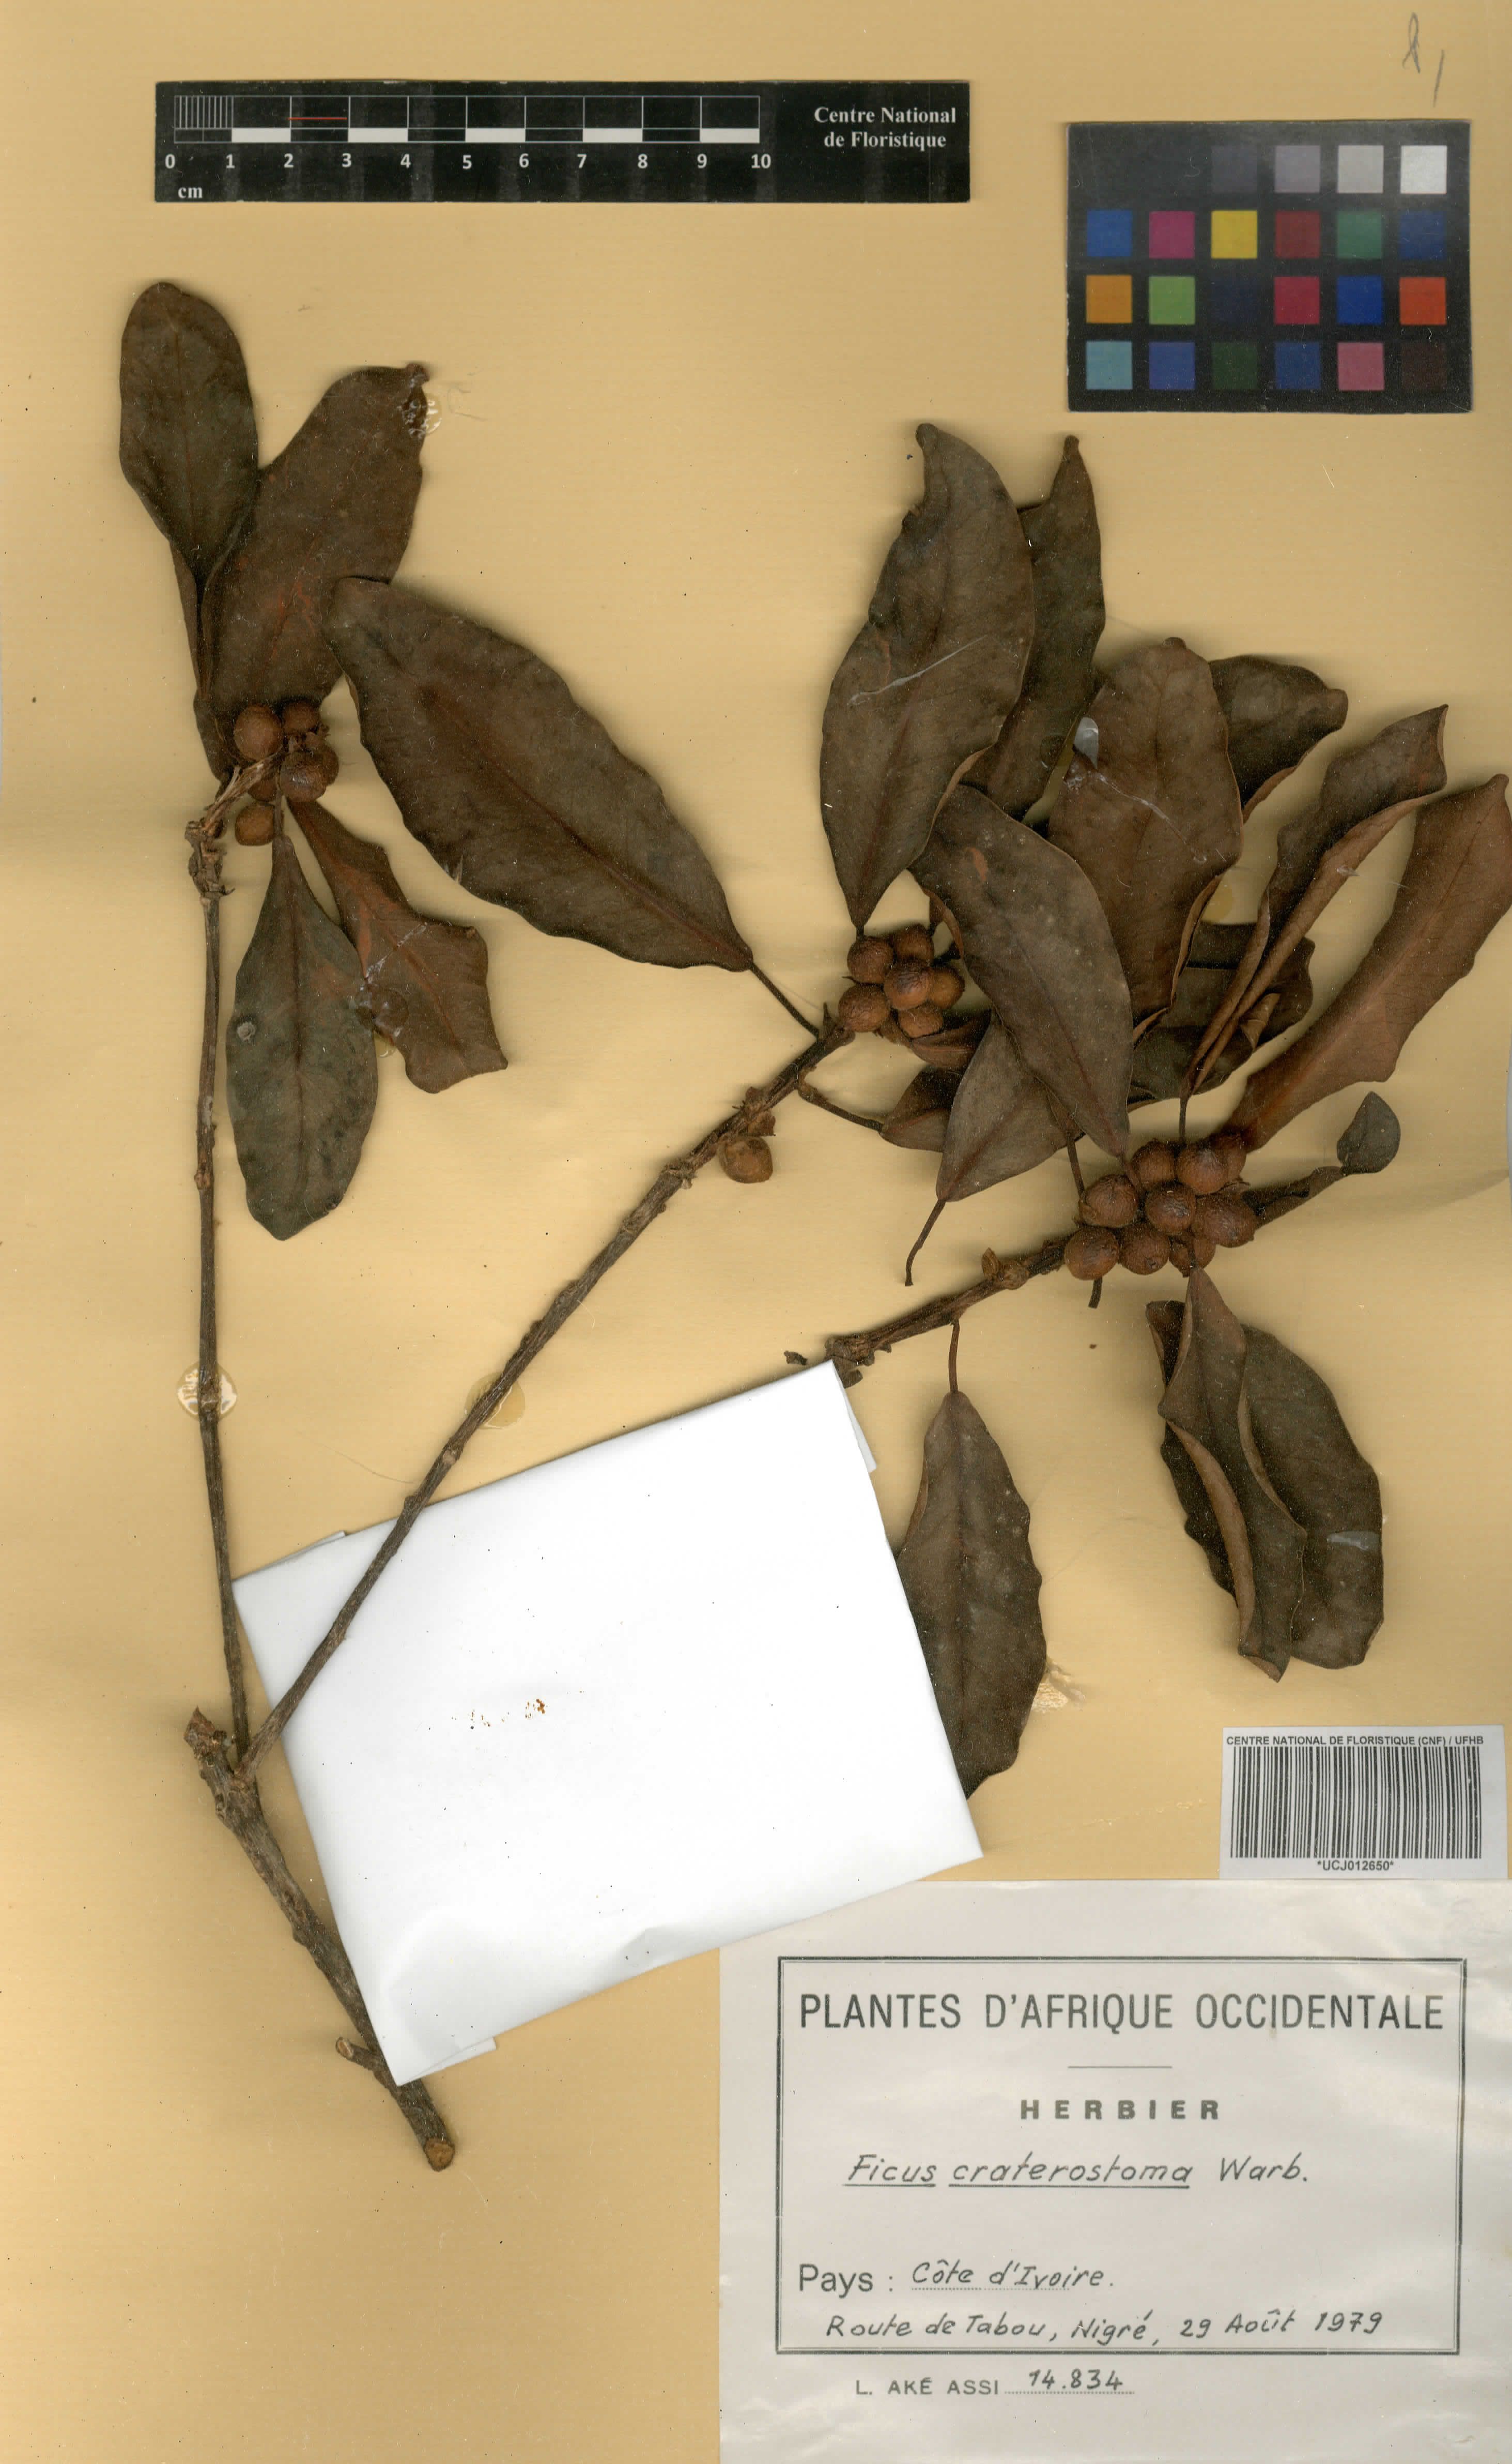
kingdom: Plantae
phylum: Tracheophyta
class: Magnoliopsida
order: Rosales
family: Moraceae
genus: Ficus
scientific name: Ficus craterostoma
